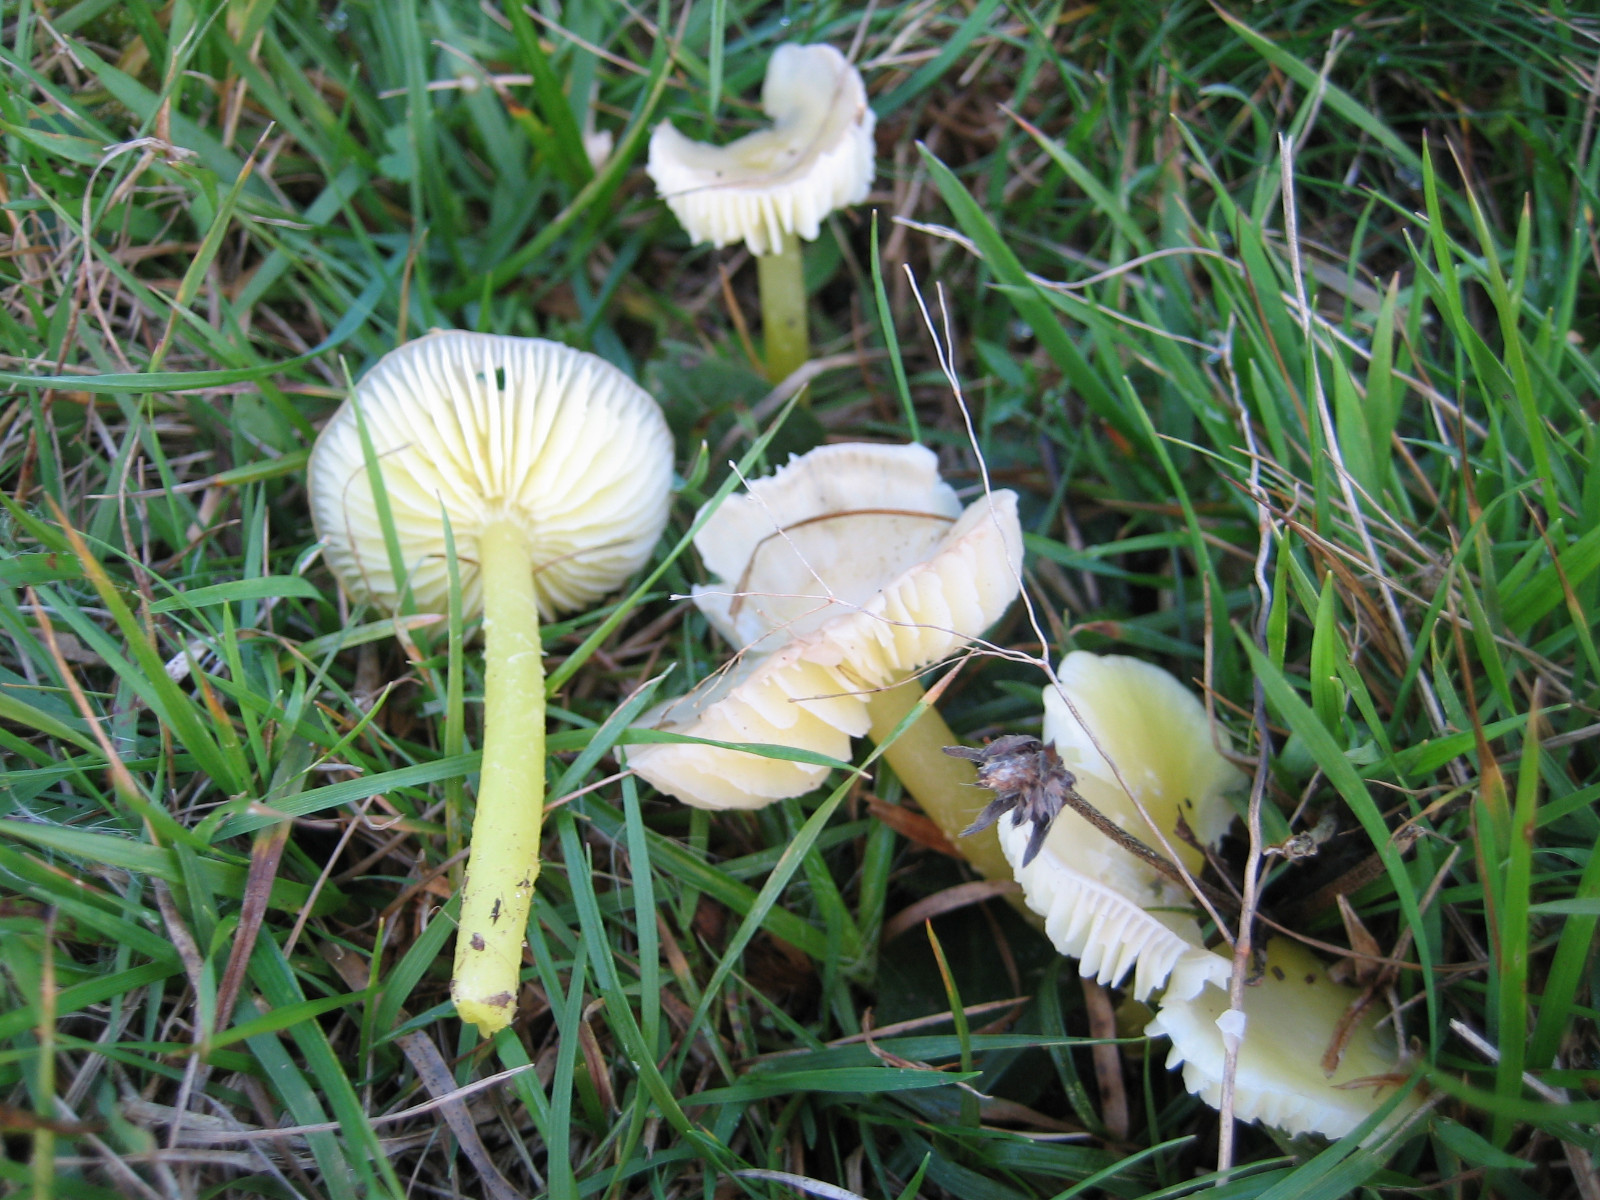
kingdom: Fungi
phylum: Basidiomycota
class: Agaricomycetes
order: Agaricales
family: Hygrophoraceae
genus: Hygrocybe
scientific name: Hygrocybe glutinipes
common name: slimstokket vokshat
